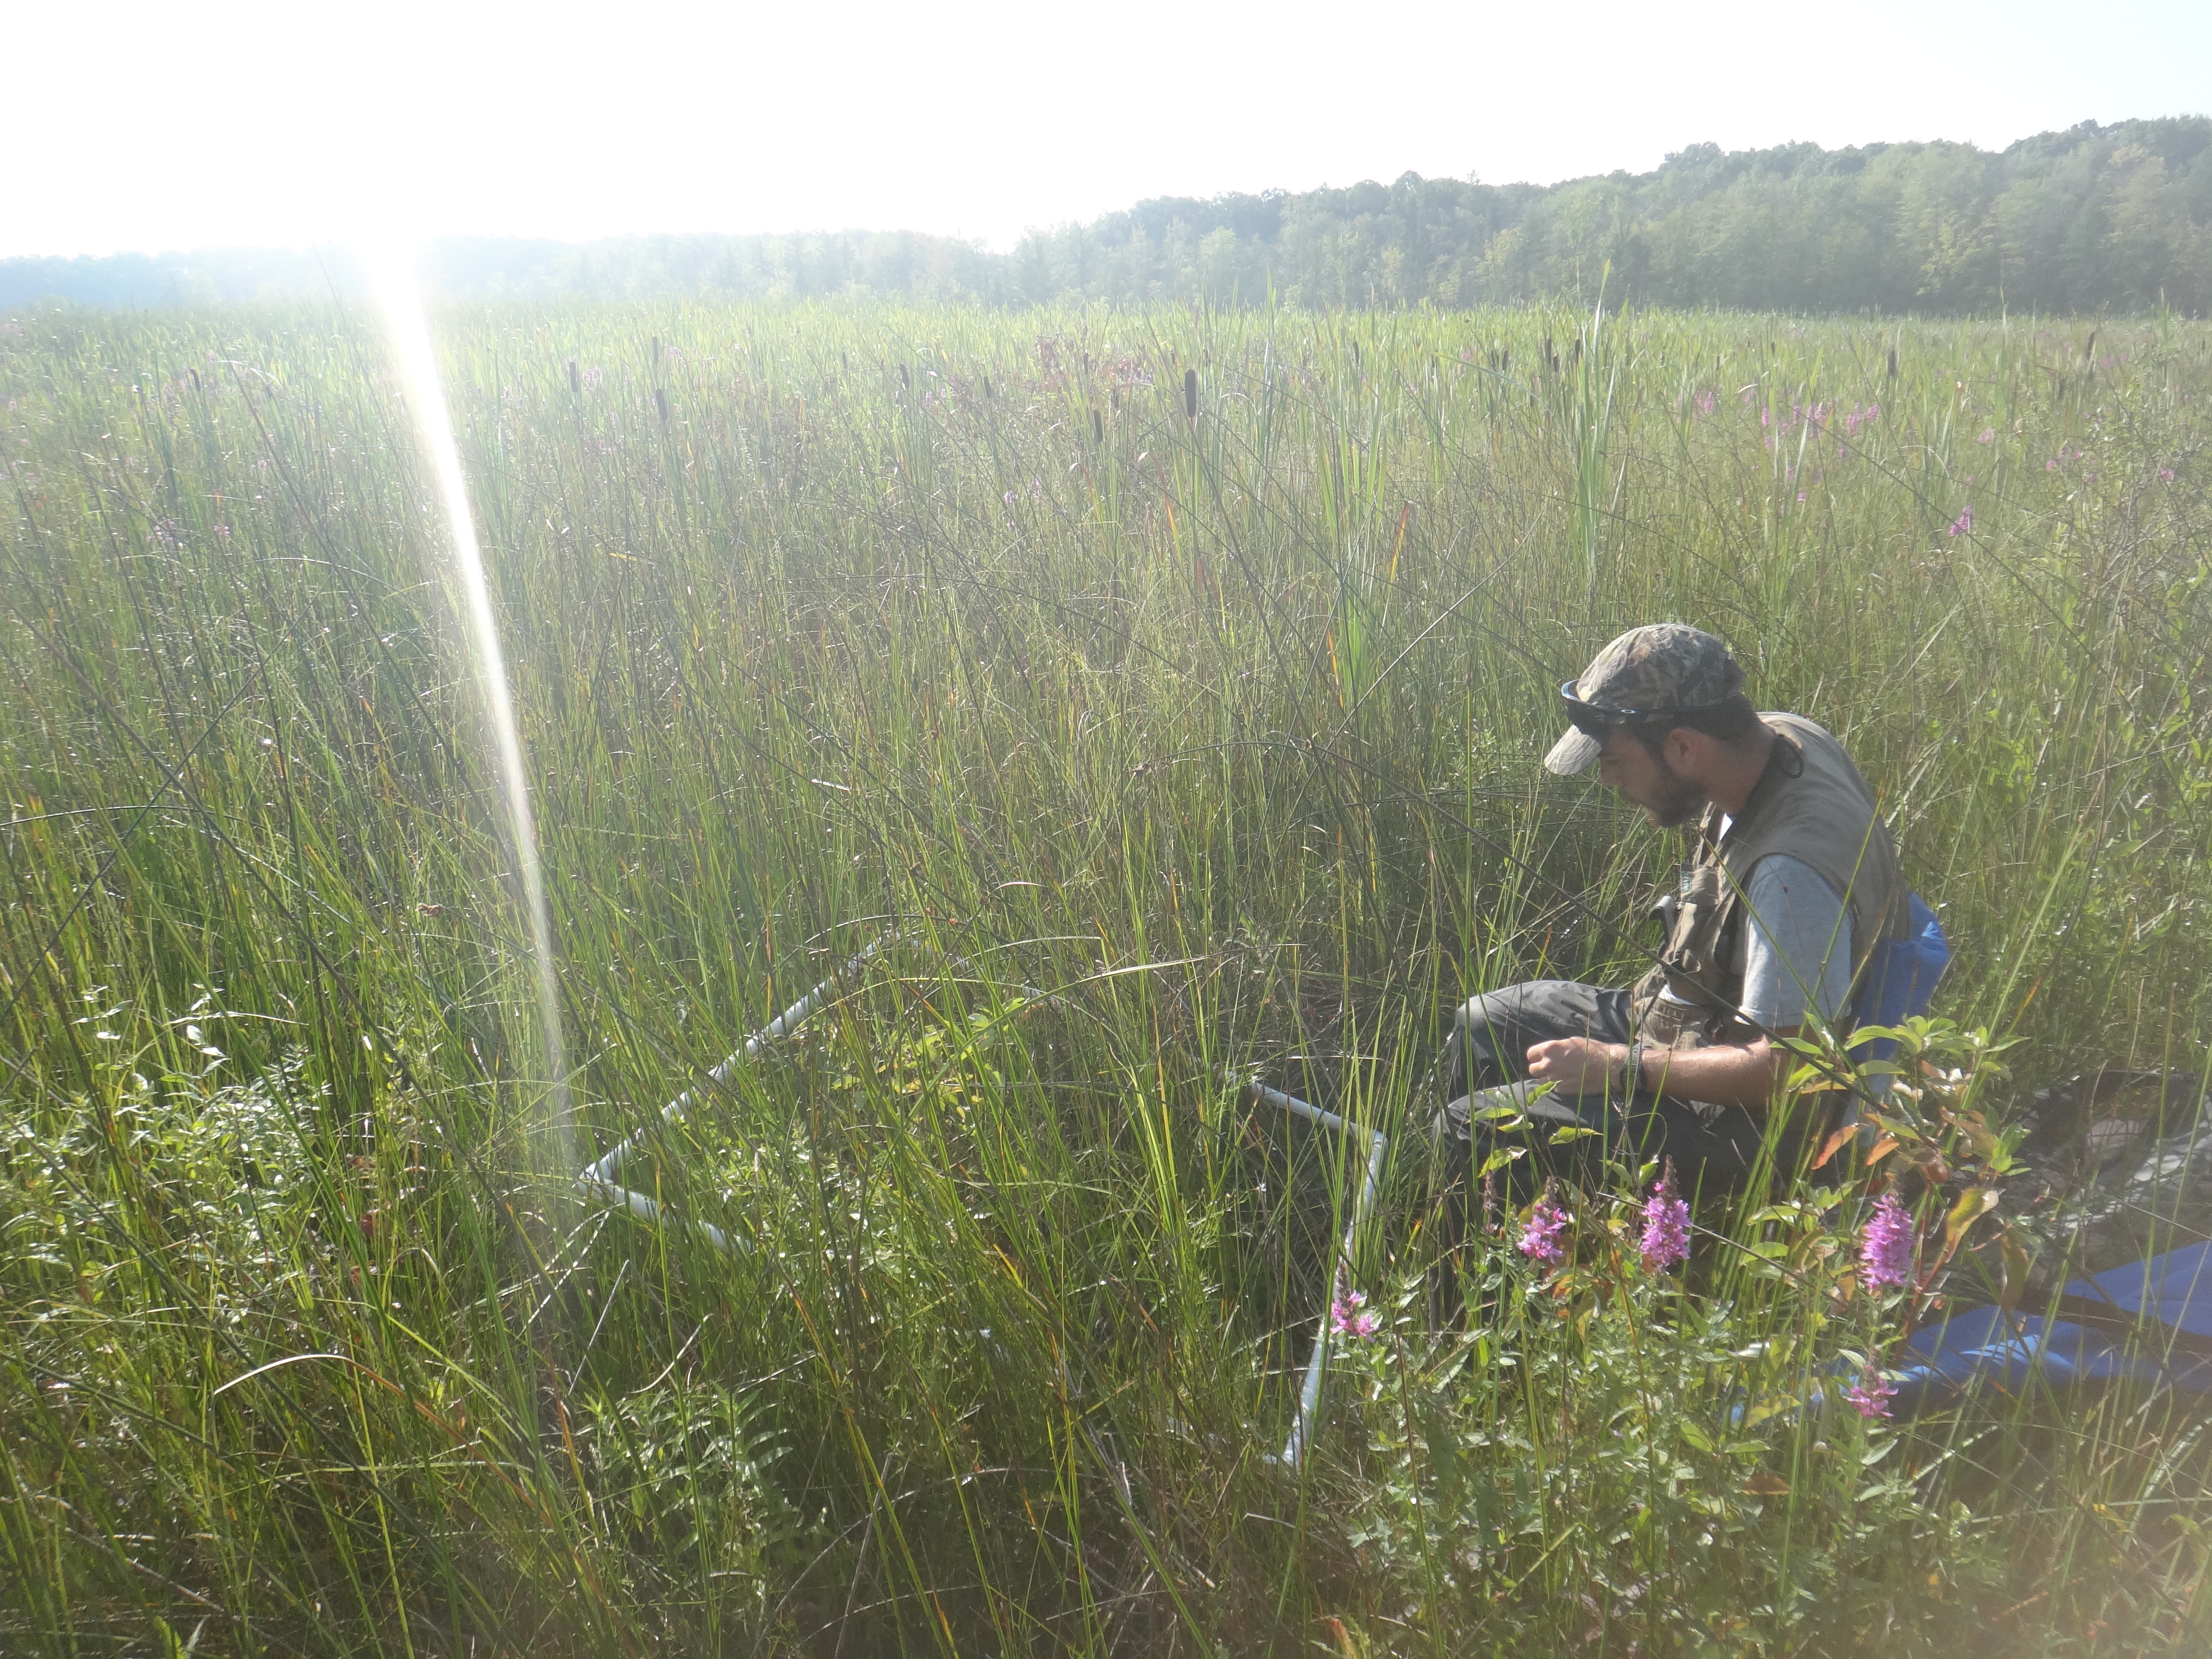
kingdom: Plantae
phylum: Tracheophyta
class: Magnoliopsida
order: Myrtales
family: Lythraceae
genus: Lythrum
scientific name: Lythrum salicaria
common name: Purple loosestrife
